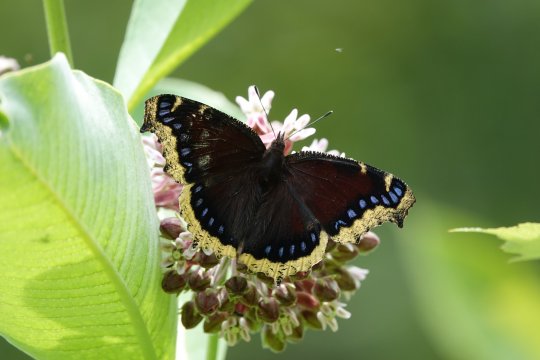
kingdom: Animalia
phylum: Arthropoda
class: Insecta
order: Lepidoptera
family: Nymphalidae
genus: Nymphalis
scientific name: Nymphalis antiopa
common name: Mourning Cloak
